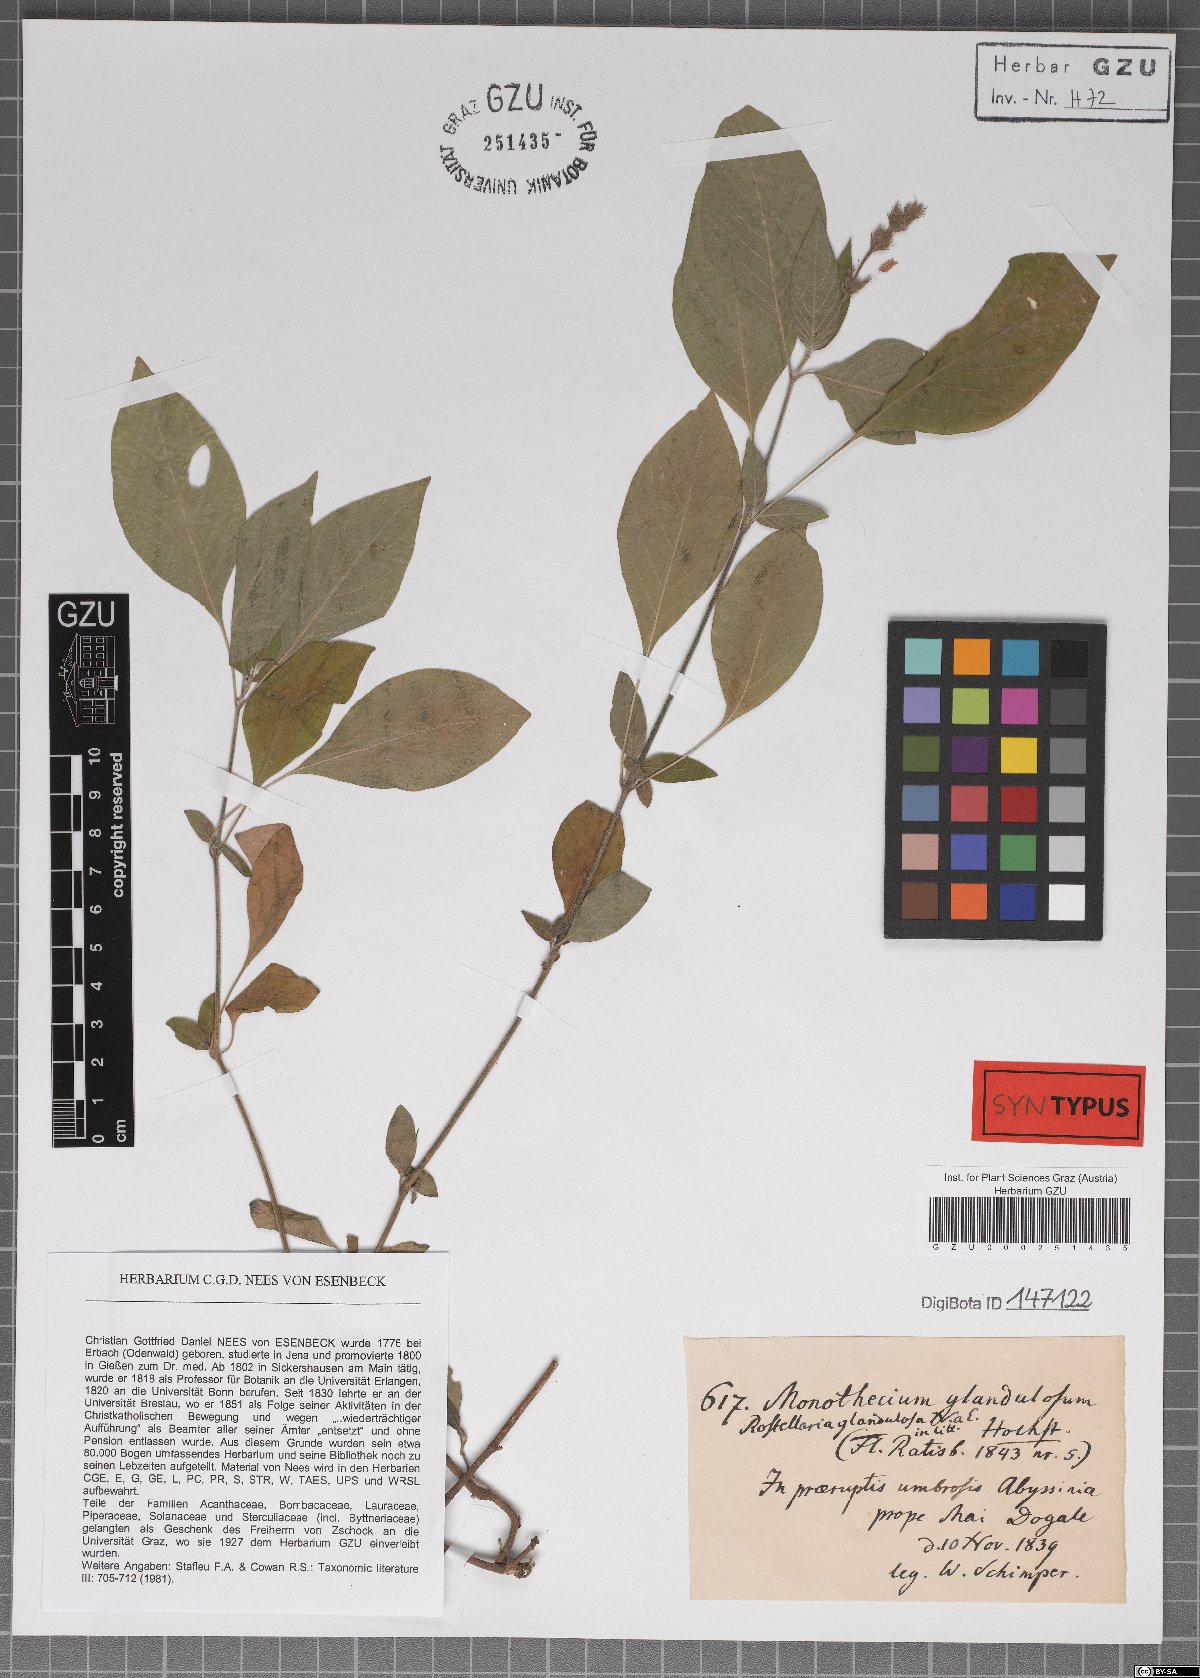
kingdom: Plantae
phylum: Tracheophyta
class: Magnoliopsida
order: Lamiales
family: Acanthaceae
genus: Monothecium
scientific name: Monothecium glandulosum
